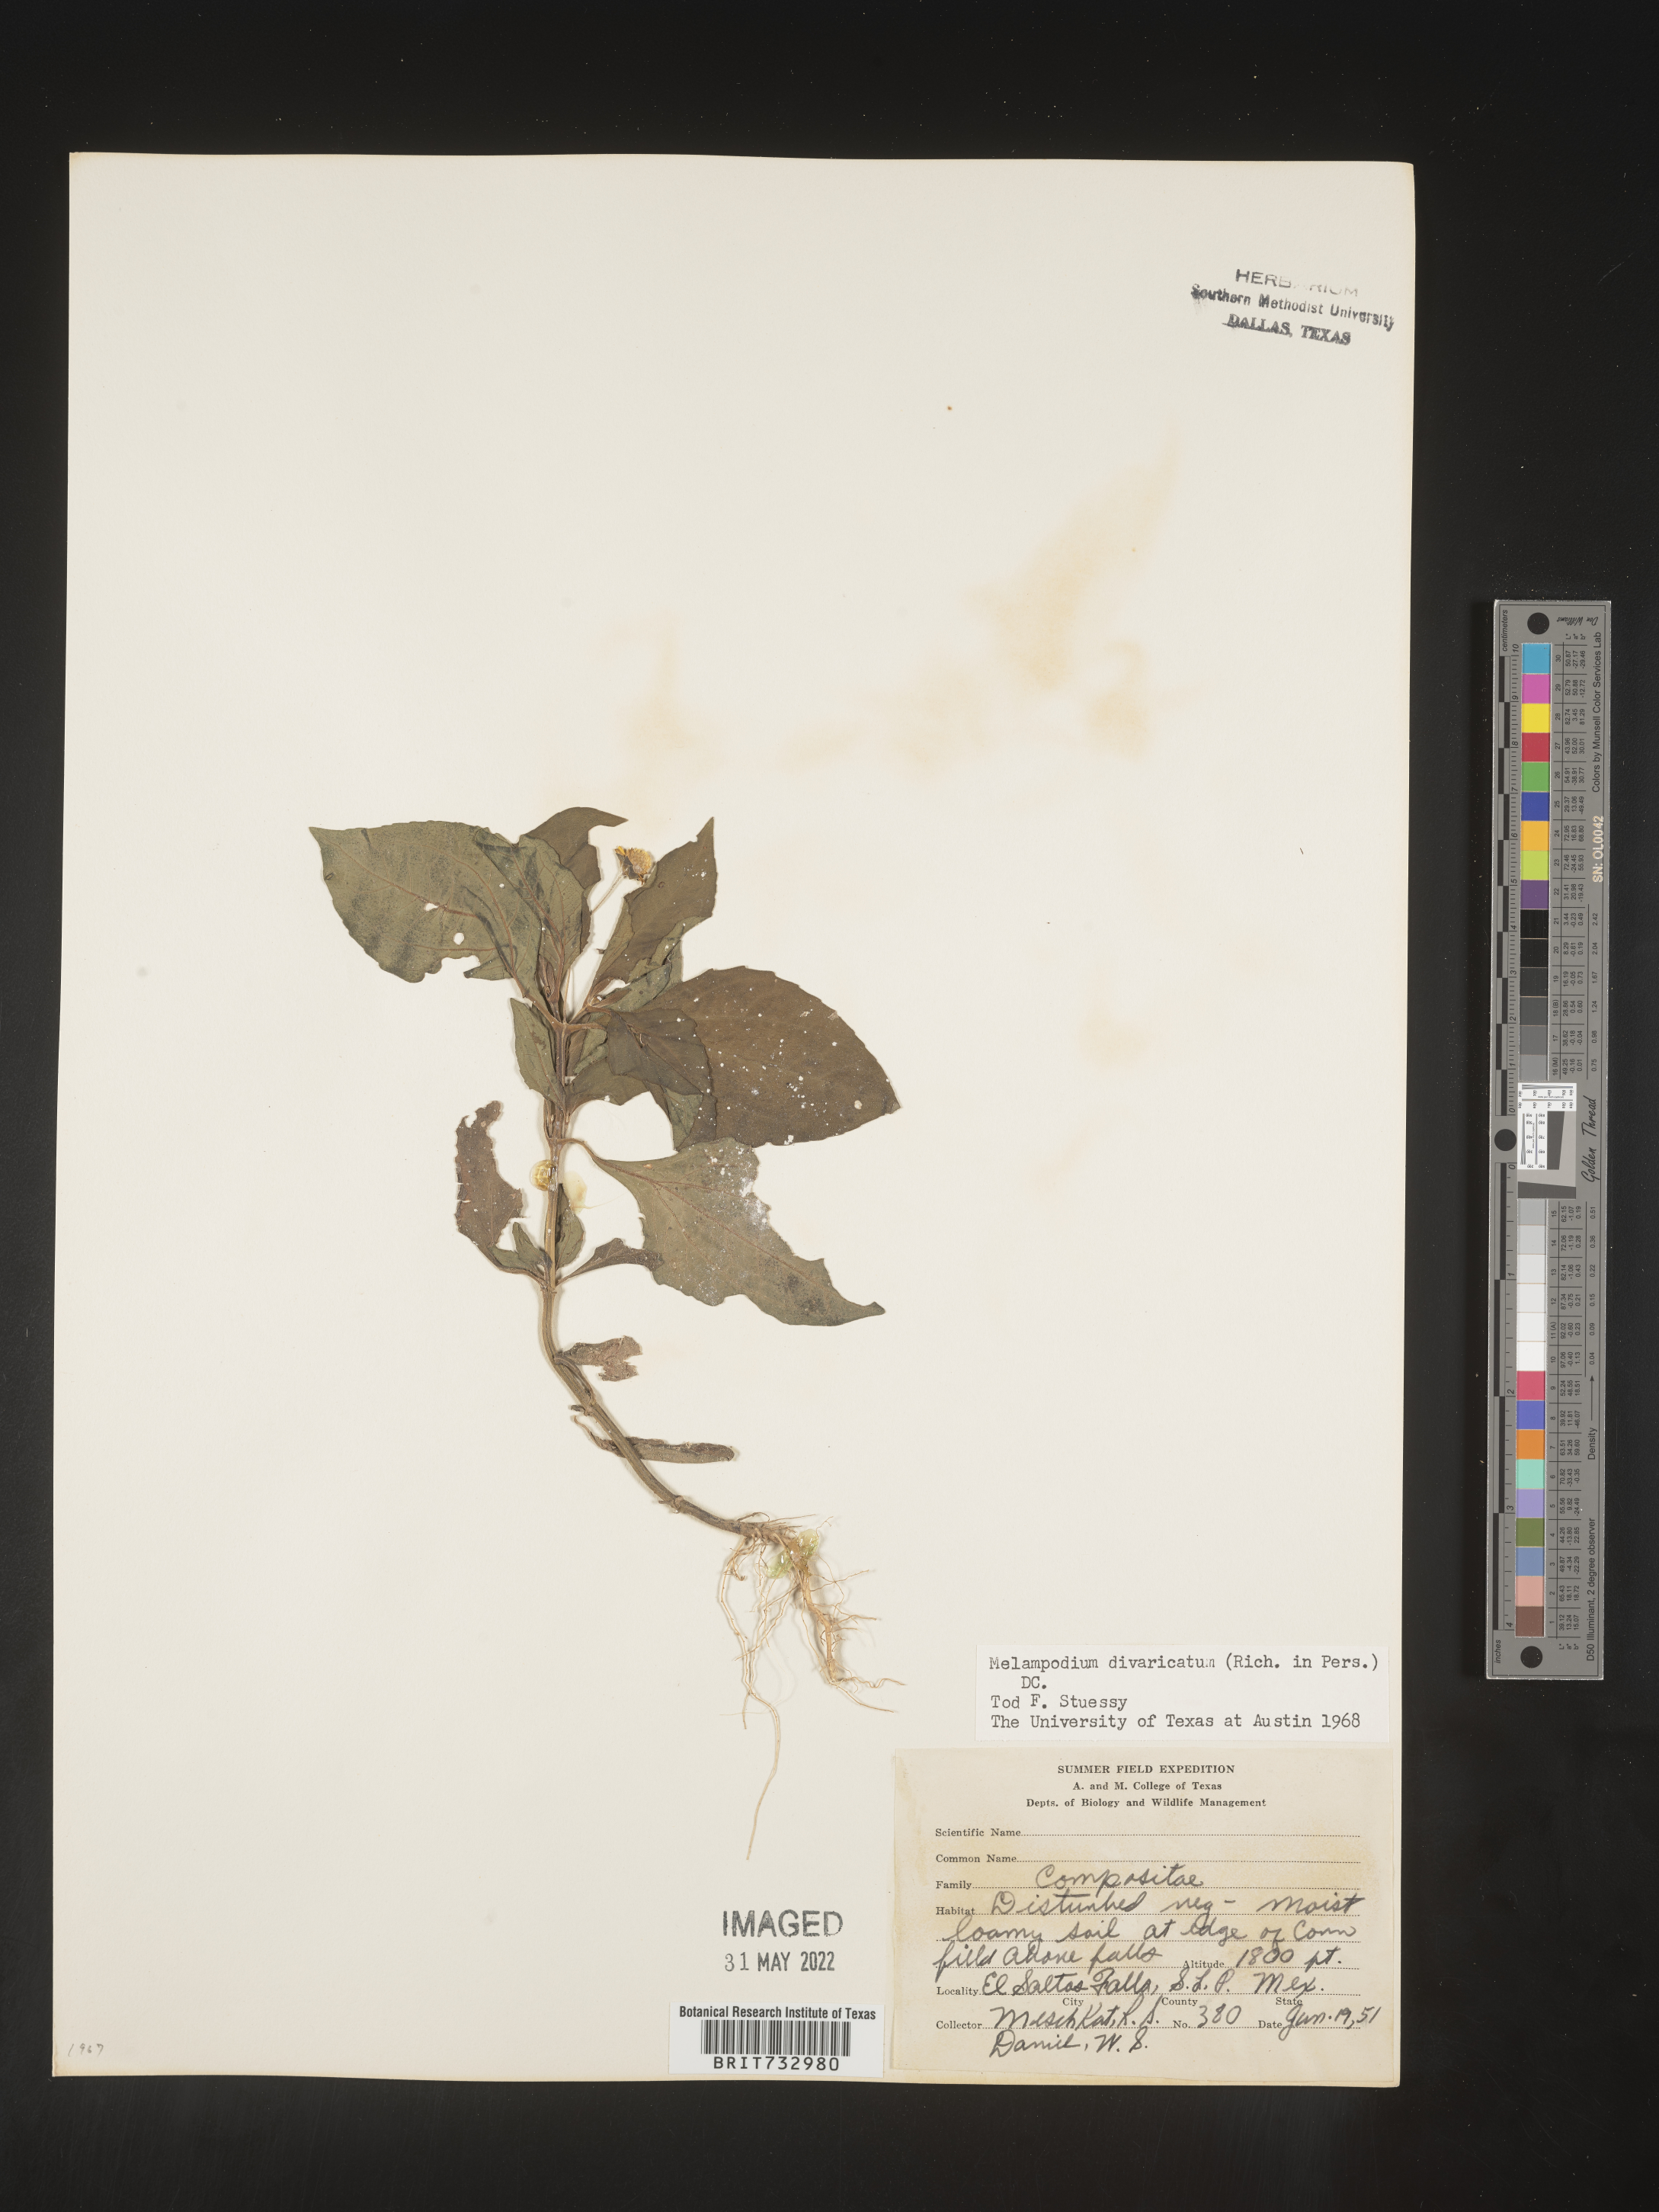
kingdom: Plantae
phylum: Tracheophyta
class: Magnoliopsida
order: Asterales
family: Asteraceae
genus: Melampodium
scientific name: Melampodium
